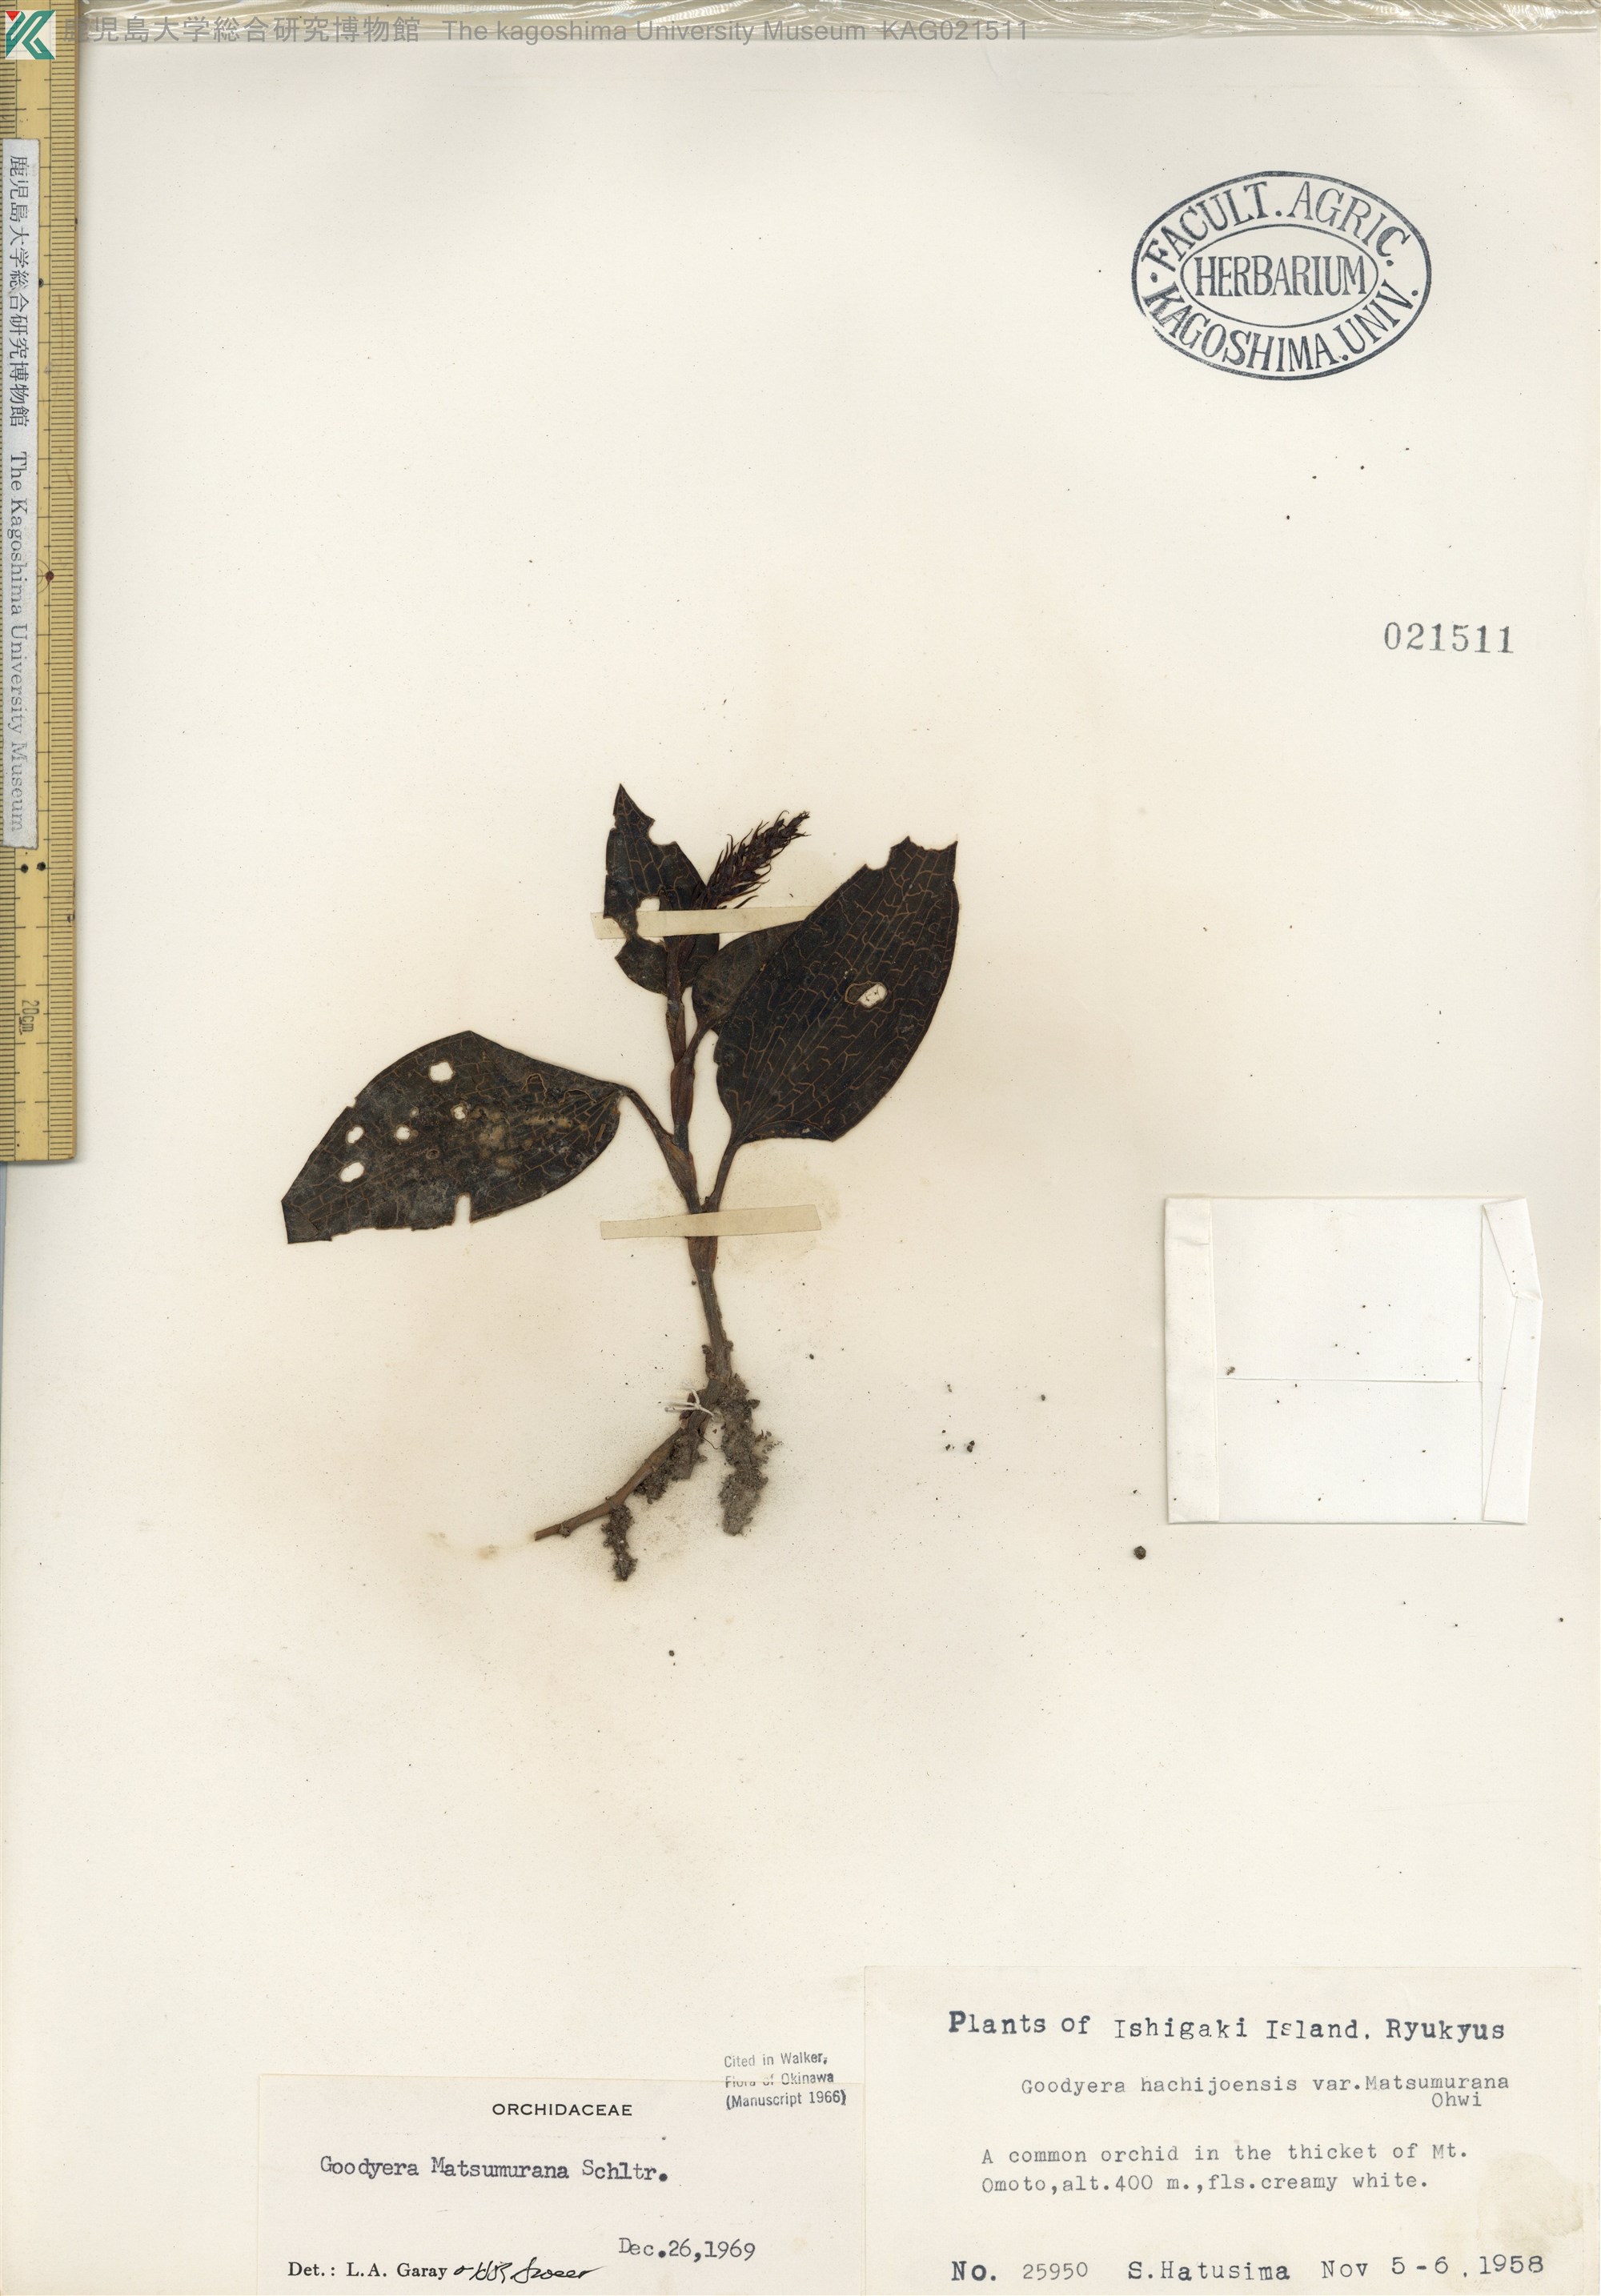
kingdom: Plantae
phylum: Tracheophyta
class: Liliopsida
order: Asparagales
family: Orchidaceae
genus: Goodyera
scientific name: Goodyera hachijoensis
